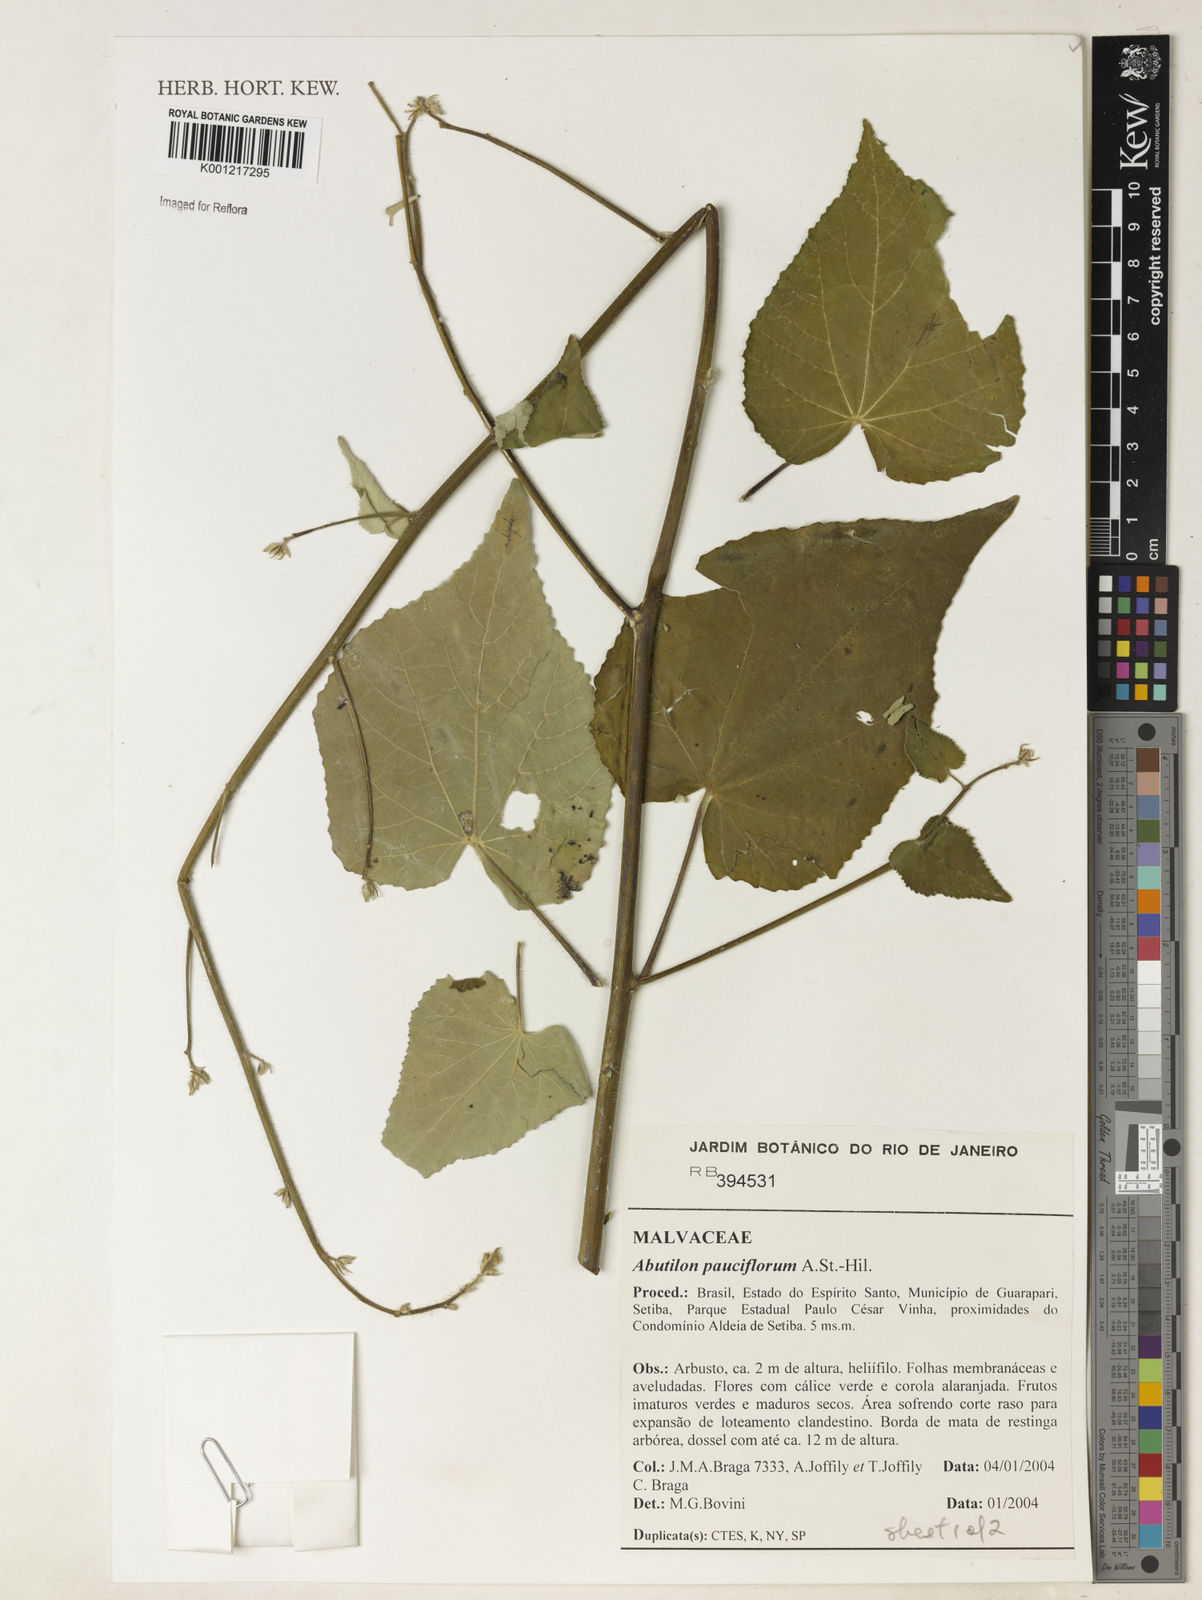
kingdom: Plantae
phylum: Tracheophyta
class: Magnoliopsida
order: Malvales
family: Malvaceae
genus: Callianthe
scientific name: Callianthe pauciflora
